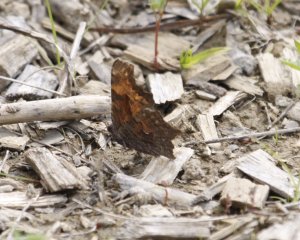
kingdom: Animalia
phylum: Arthropoda
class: Insecta
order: Lepidoptera
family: Nymphalidae
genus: Polygonia
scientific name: Polygonia progne
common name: Gray Comma
